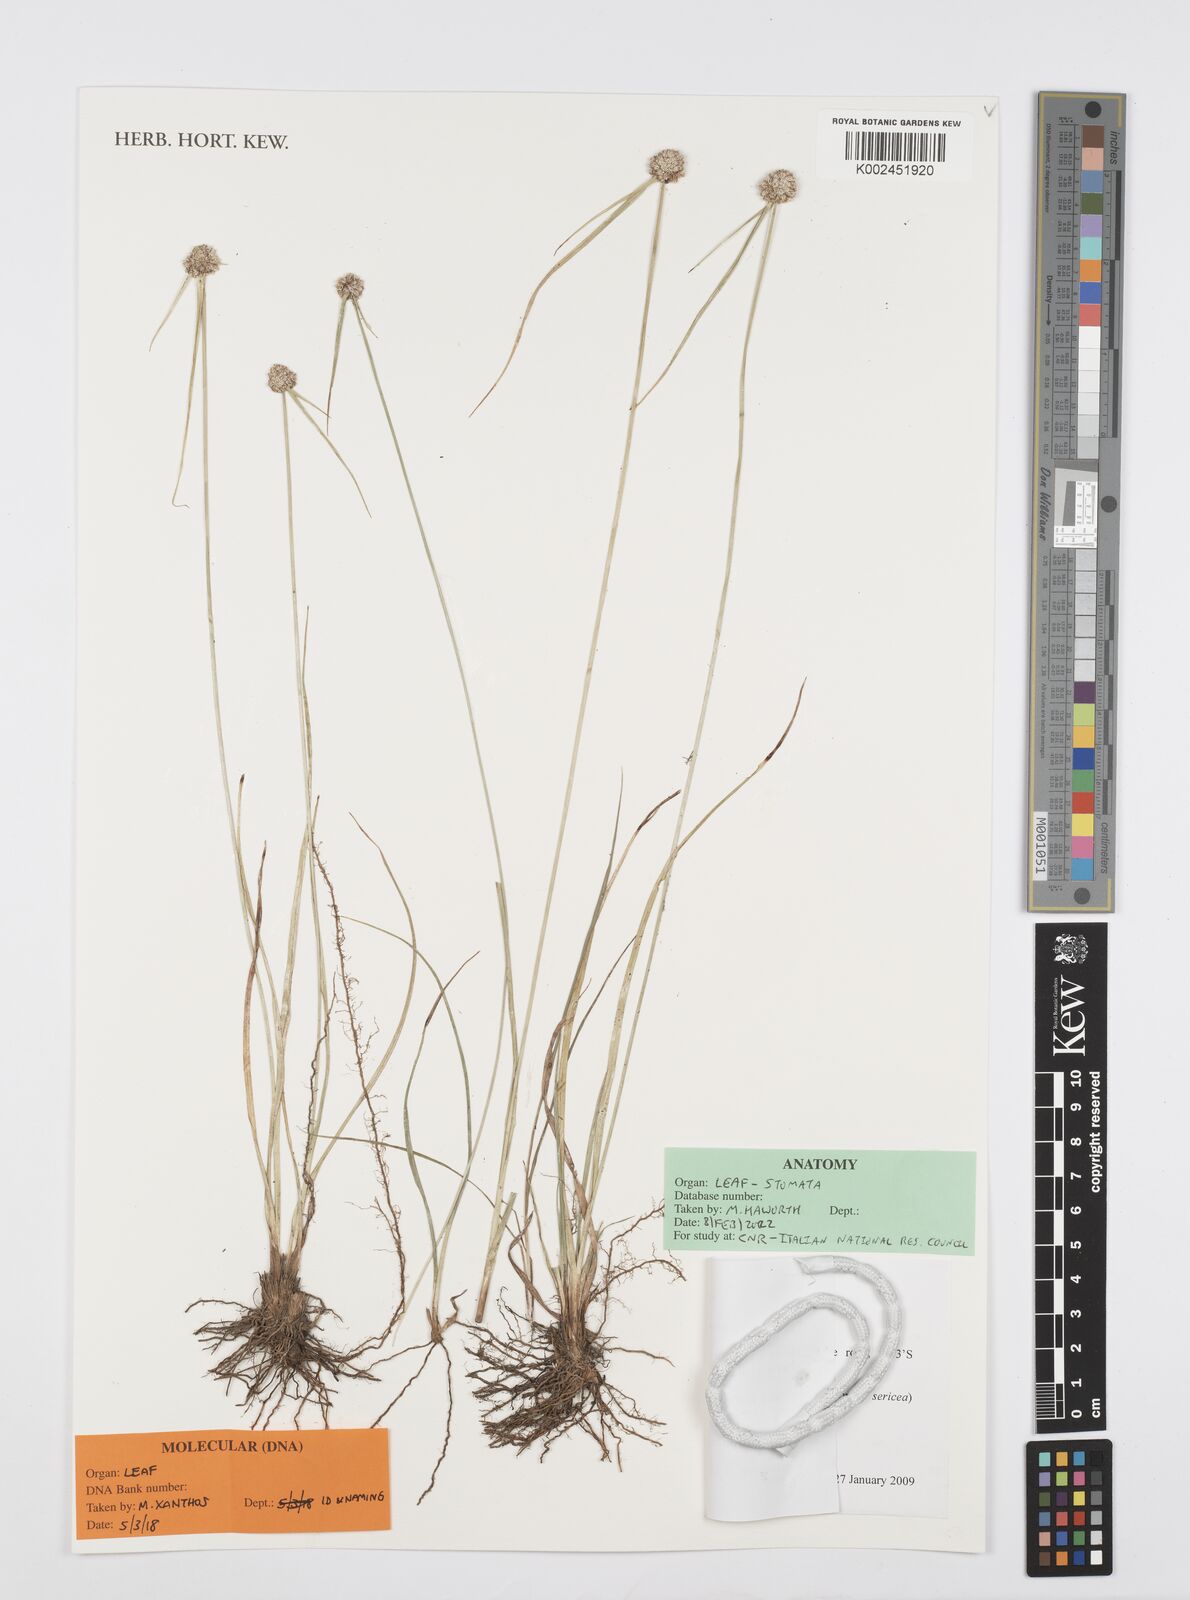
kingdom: Plantae
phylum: Tracheophyta
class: Liliopsida
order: Poales
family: Cyperaceae
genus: Cyperus
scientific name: Cyperus simpsonii
